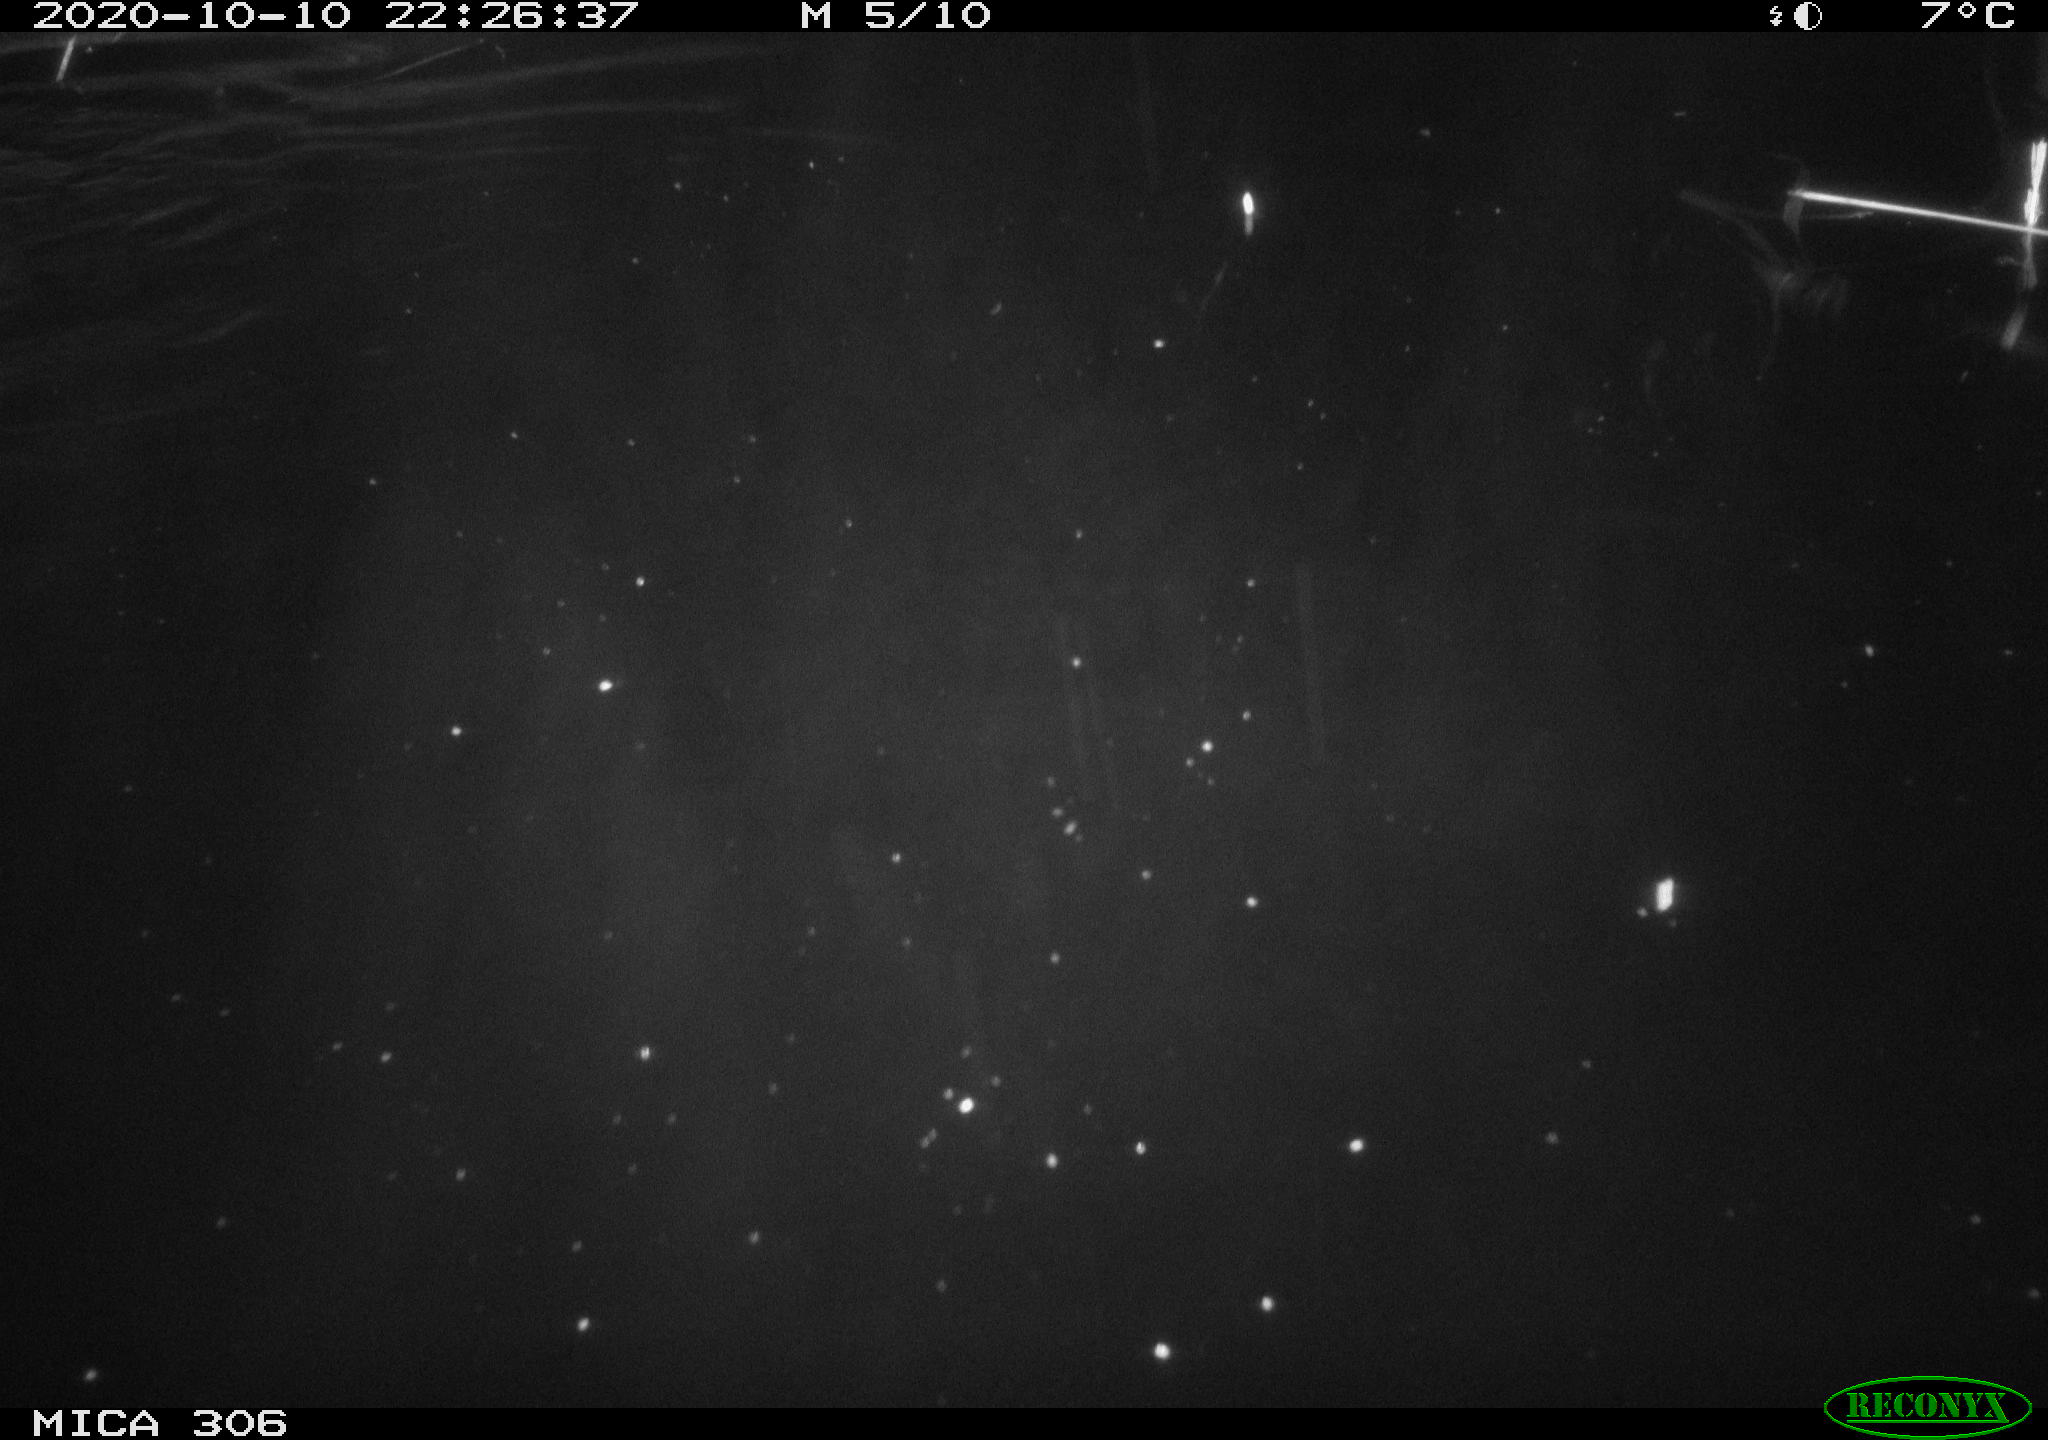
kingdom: Animalia
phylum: Chordata
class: Mammalia
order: Rodentia
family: Cricetidae
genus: Ondatra
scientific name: Ondatra zibethicus
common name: Muskrat
